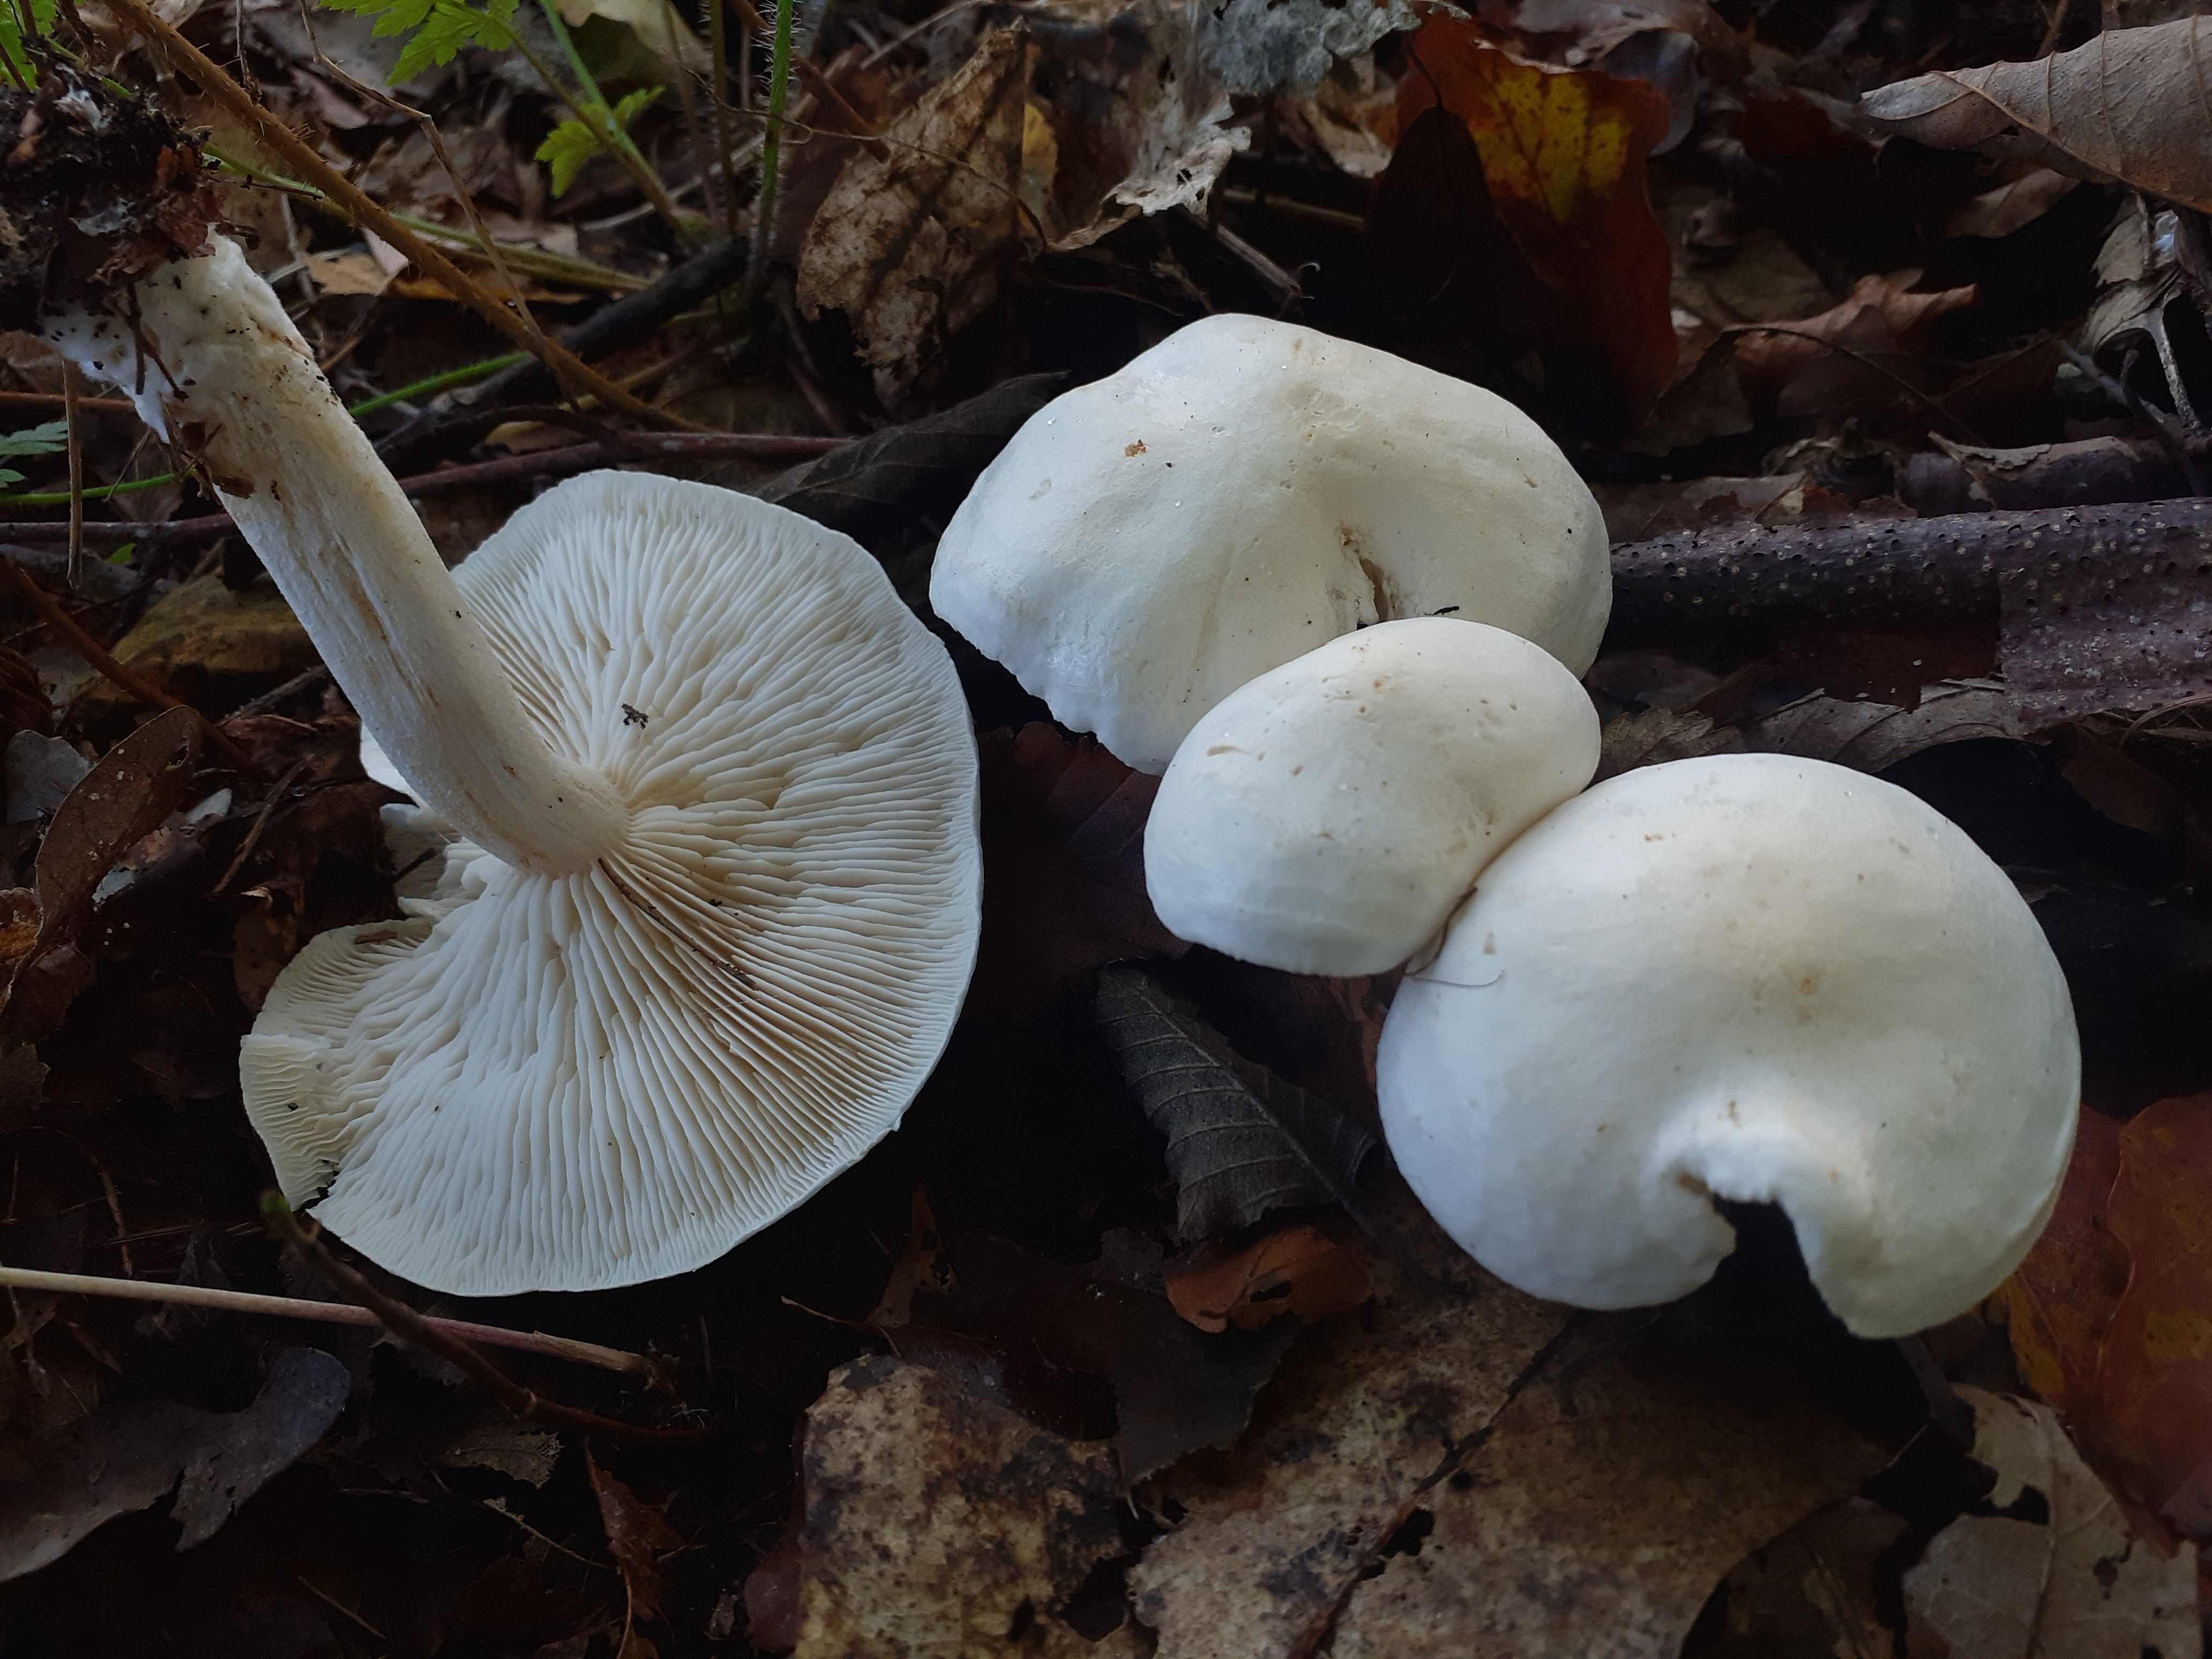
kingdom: Fungi
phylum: Basidiomycota
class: Agaricomycetes
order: Agaricales
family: Tricholomataceae
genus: Tricholoma
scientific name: Tricholoma stiparophyllum
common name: hvid ridderhat
